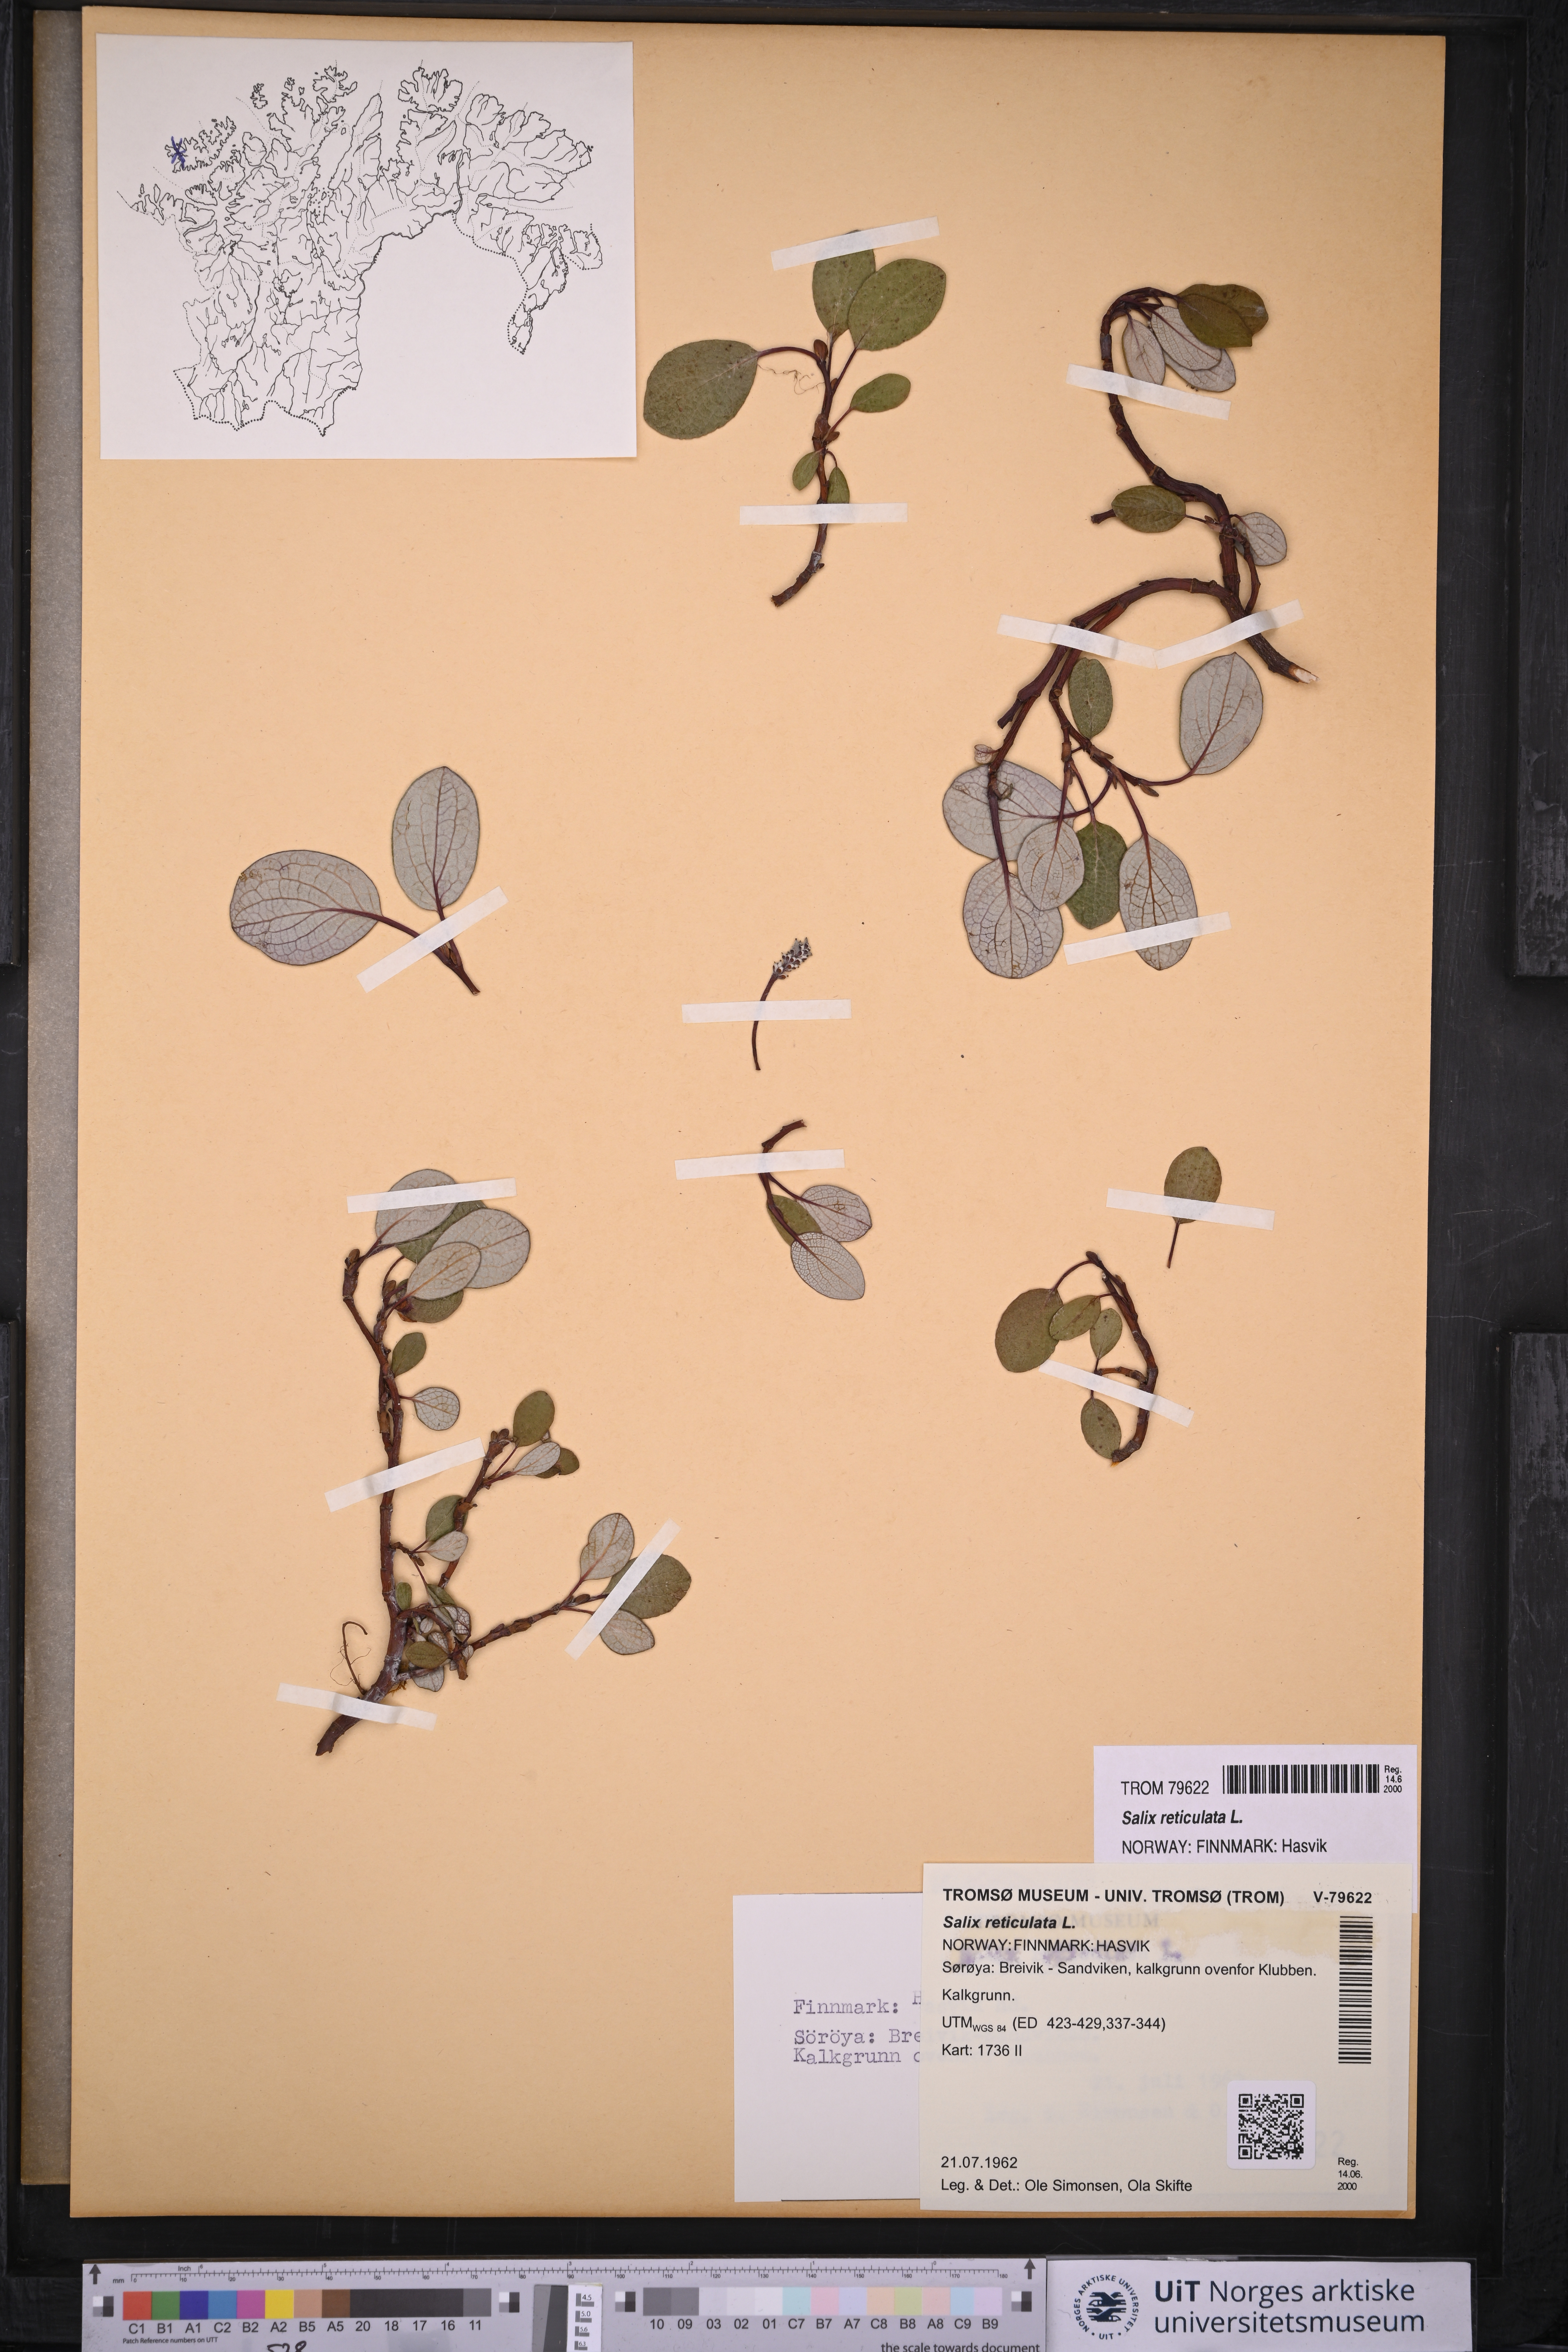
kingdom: Plantae
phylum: Tracheophyta
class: Magnoliopsida
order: Malpighiales
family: Salicaceae
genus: Salix
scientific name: Salix reticulata
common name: Net-leaved willow
